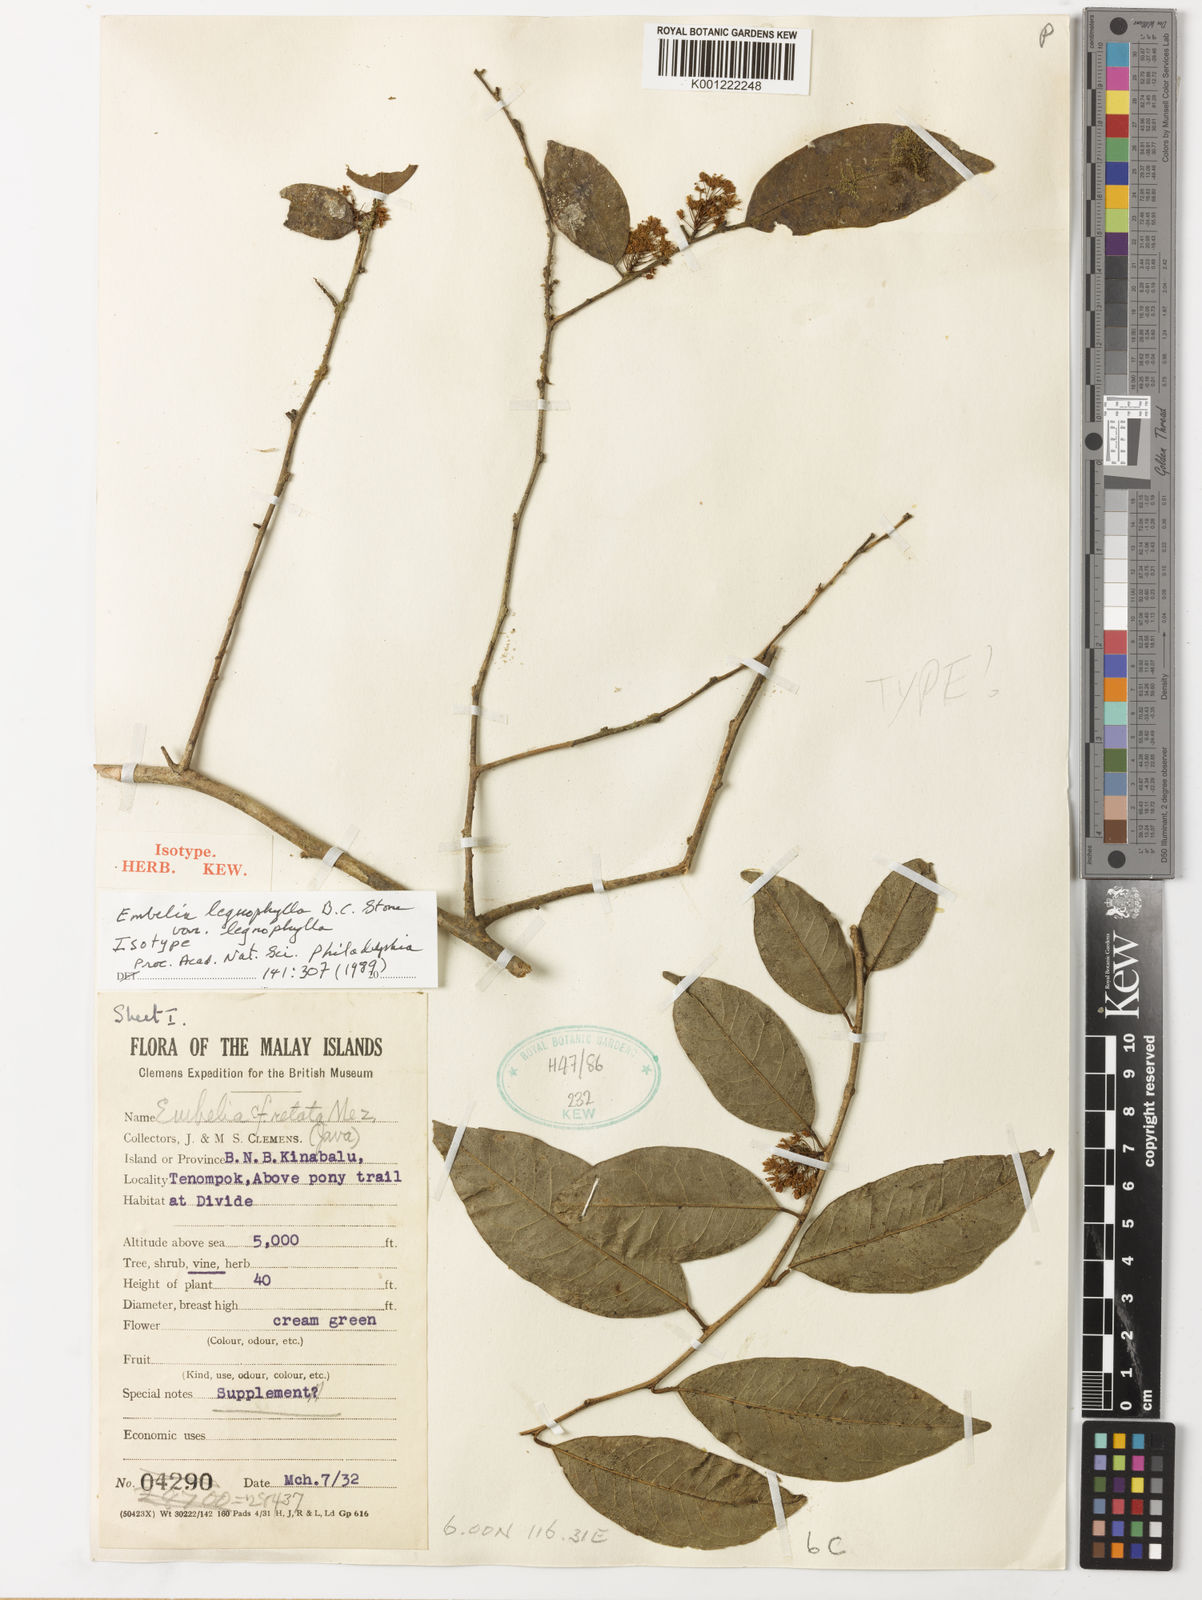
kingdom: Plantae
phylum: Tracheophyta
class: Magnoliopsida
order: Ericales
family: Primulaceae
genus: Embelia
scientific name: Embelia legnophylla
